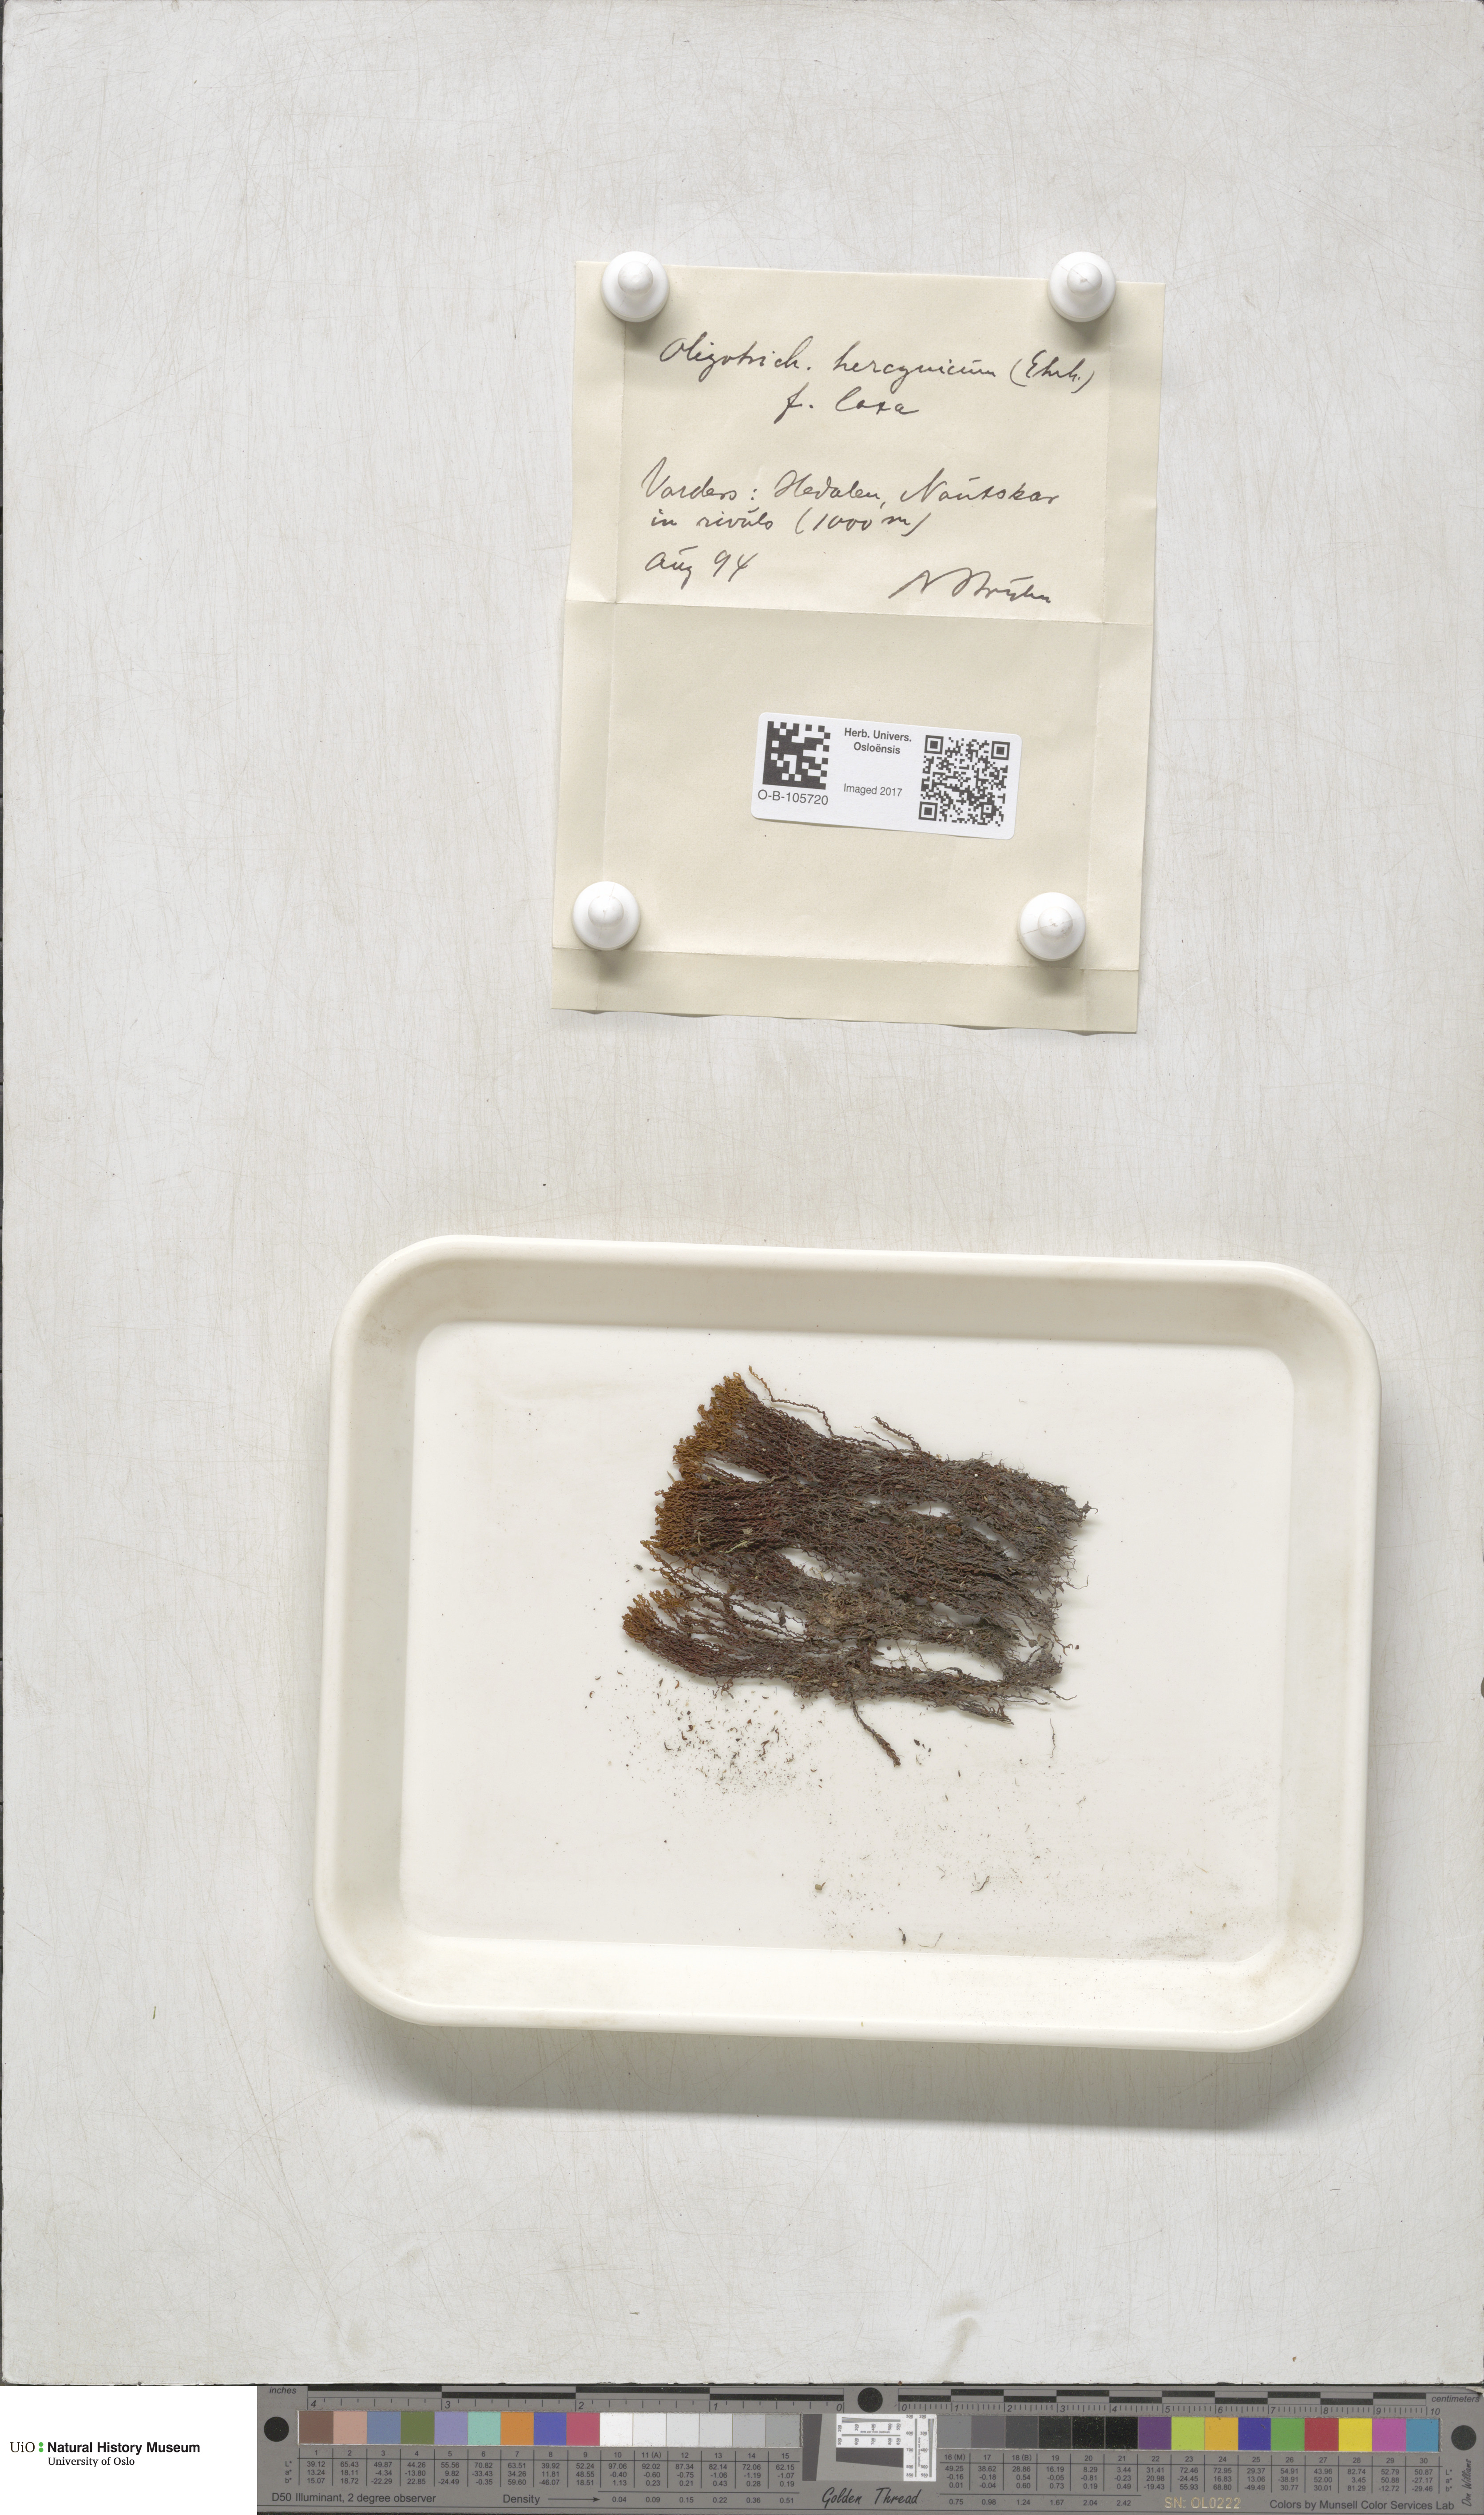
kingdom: Plantae
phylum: Bryophyta
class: Polytrichopsida
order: Polytrichales
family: Polytrichaceae
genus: Oligotrichum
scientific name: Oligotrichum hercynicum
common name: Hercynian hair moss
